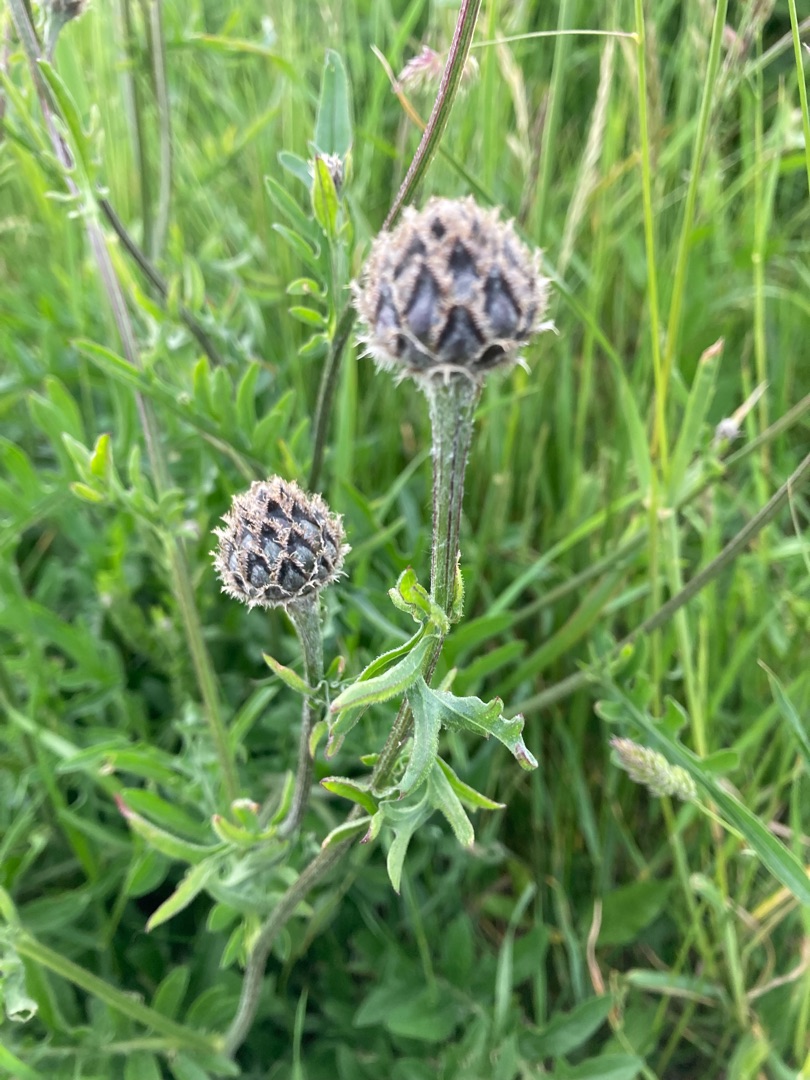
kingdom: Plantae
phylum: Tracheophyta
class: Magnoliopsida
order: Asterales
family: Asteraceae
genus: Centaurea
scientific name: Centaurea scabiosa
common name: Stor knopurt
